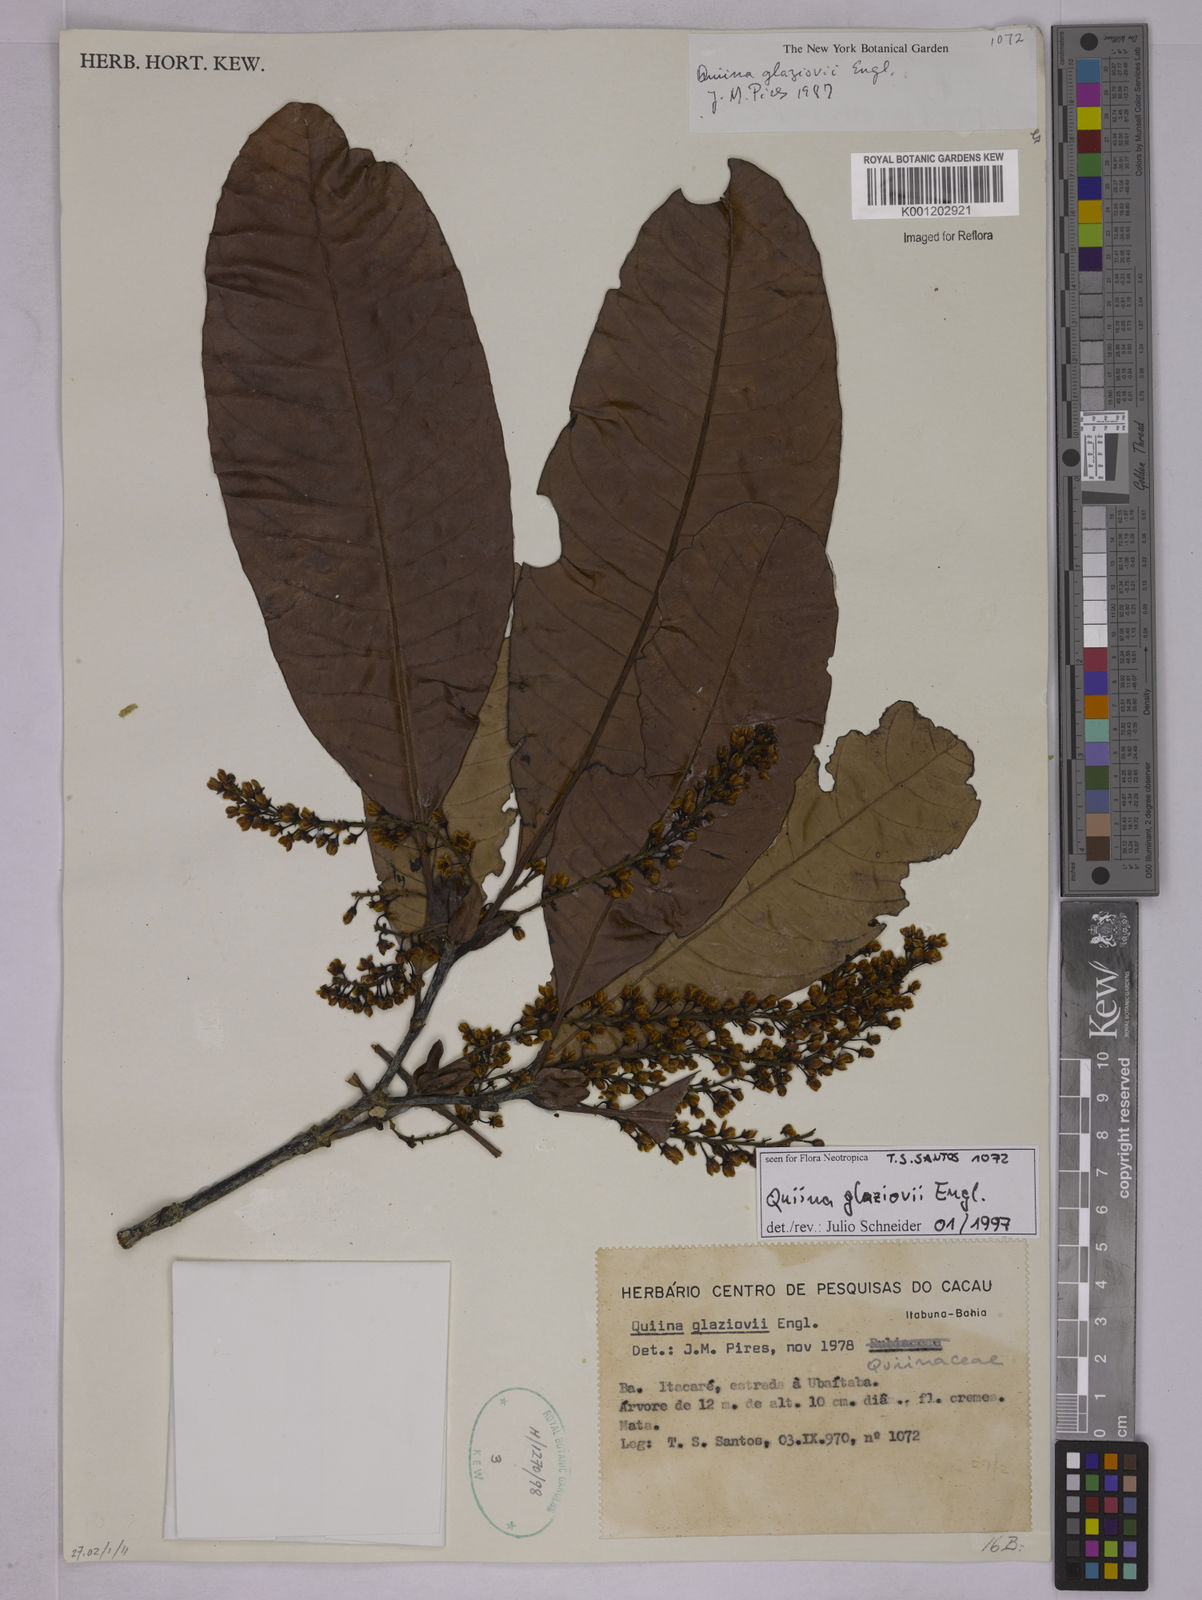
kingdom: Plantae
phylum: Tracheophyta
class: Magnoliopsida
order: Malpighiales
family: Quiinaceae
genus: Quiina
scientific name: Quiina glaziovii
